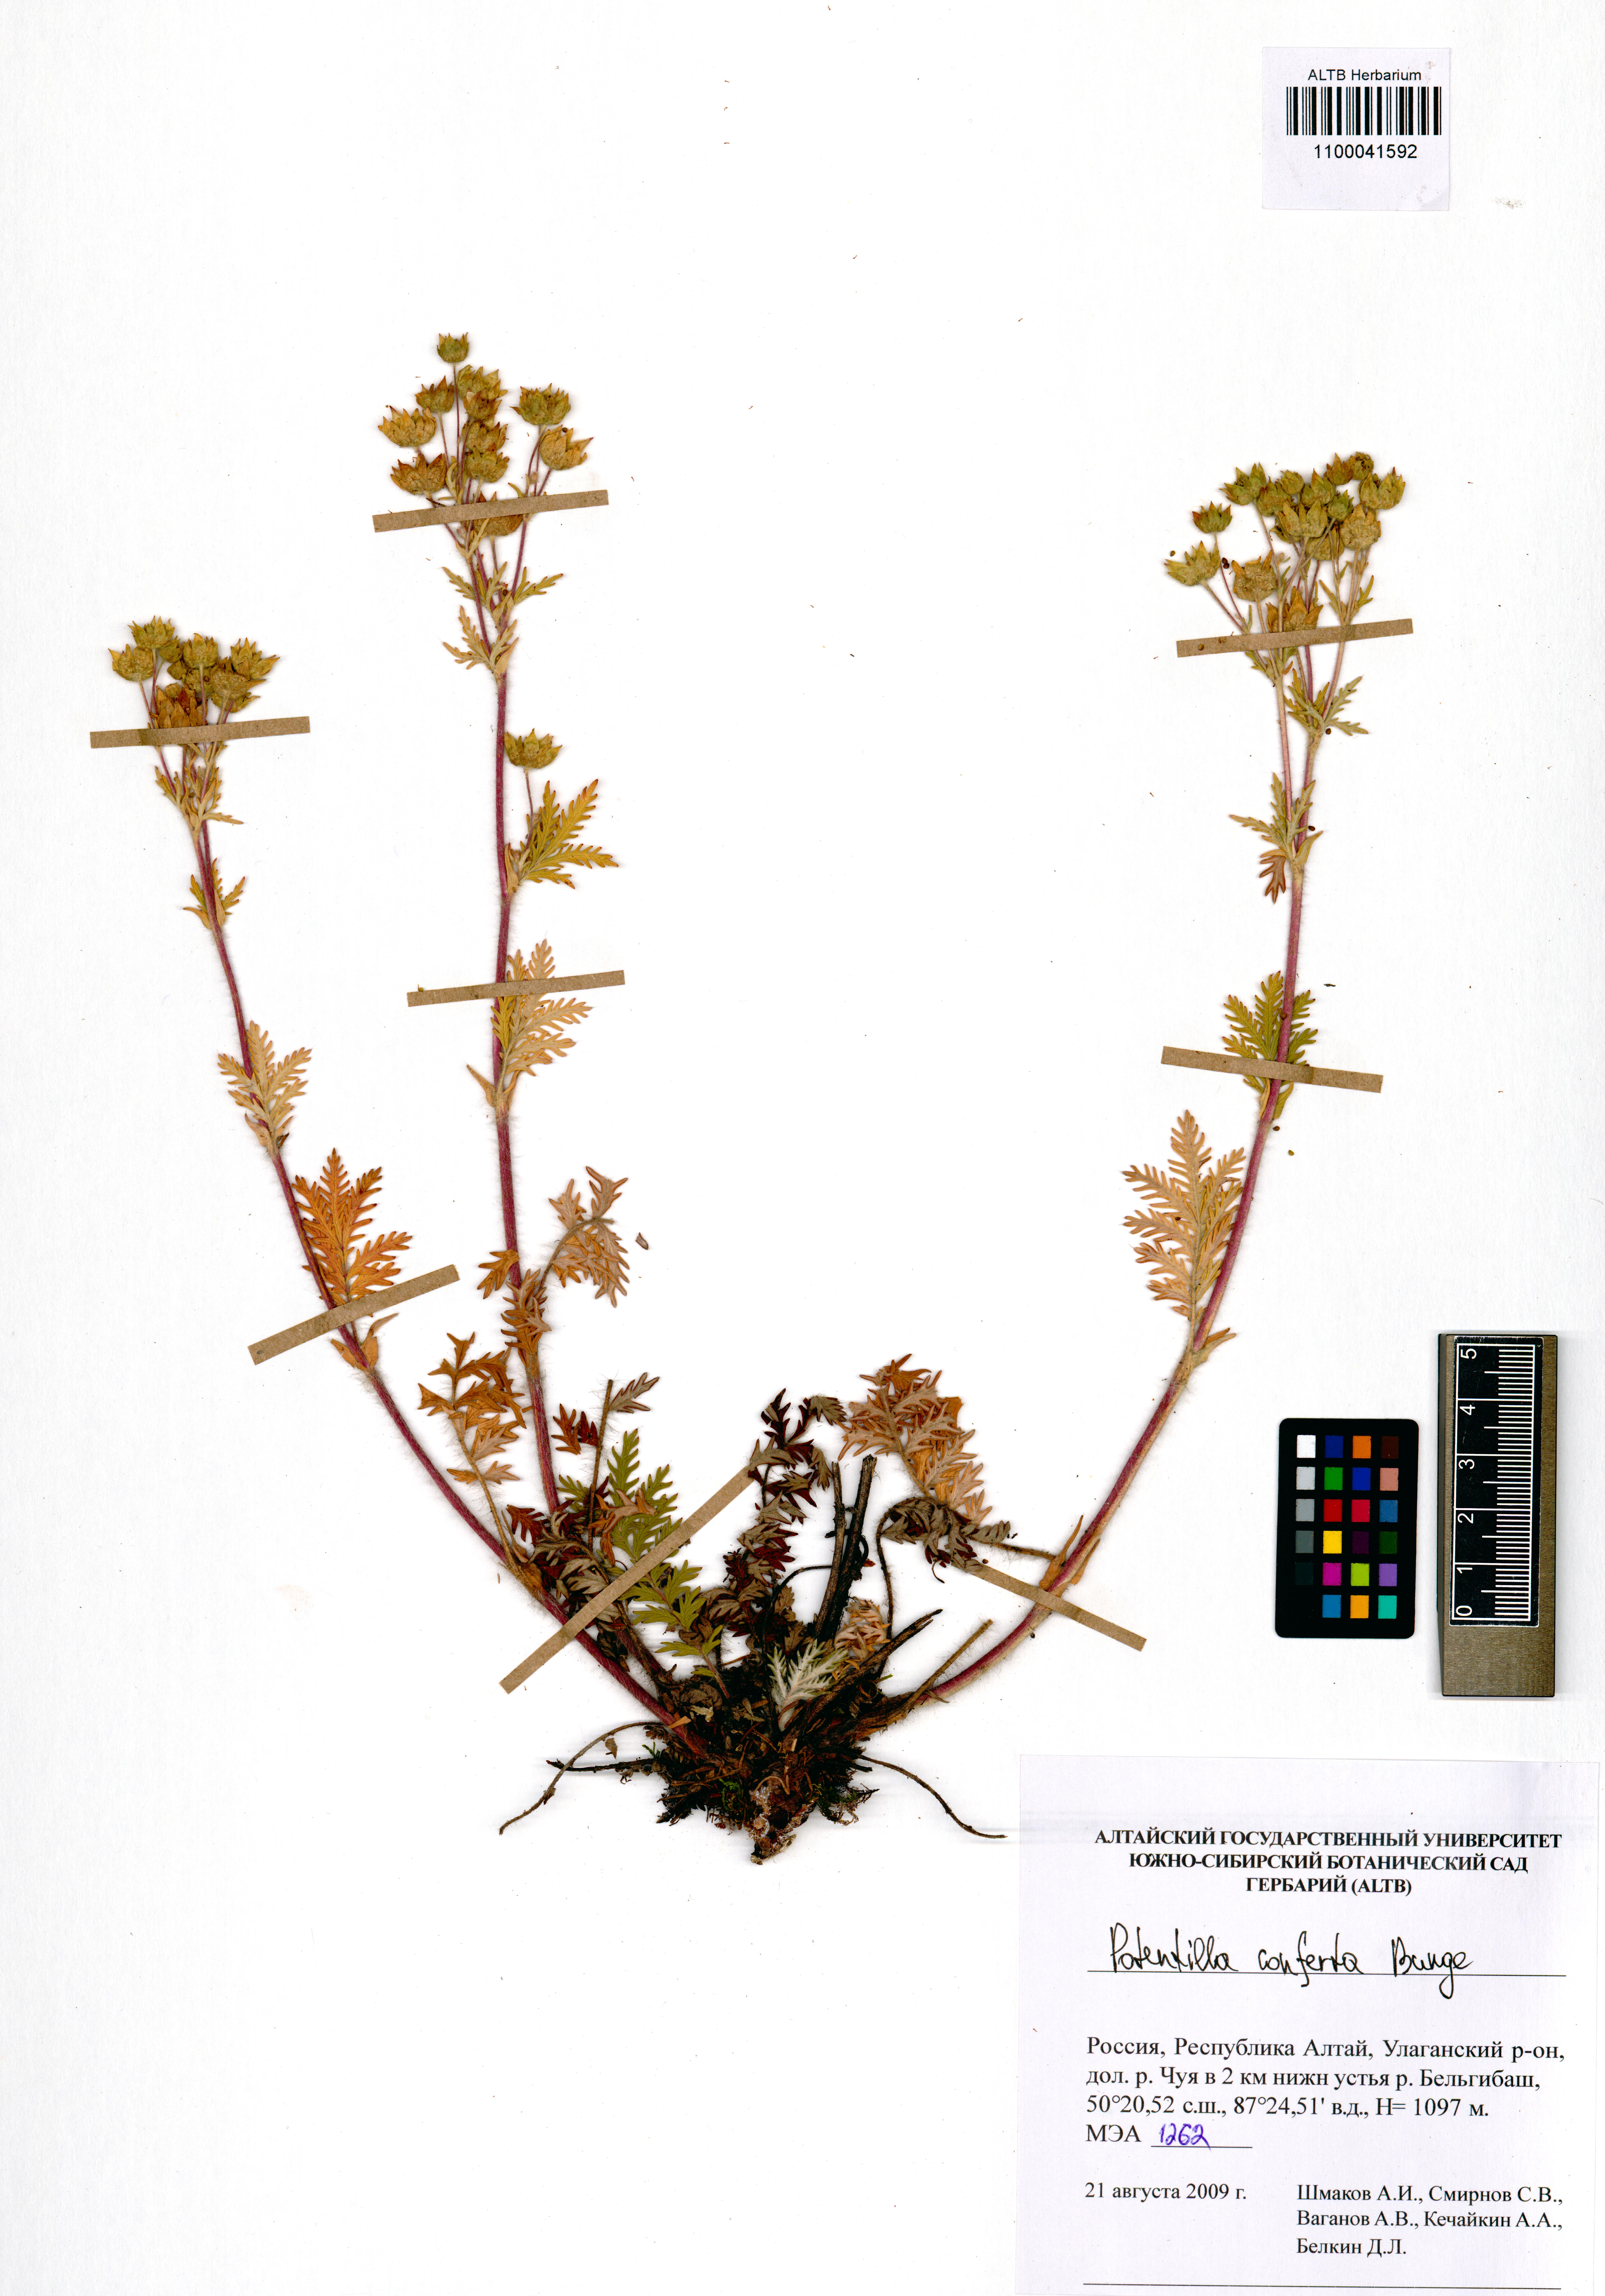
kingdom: Plantae
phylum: Tracheophyta
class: Magnoliopsida
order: Rosales
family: Rosaceae
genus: Potentilla
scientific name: Potentilla conferta
